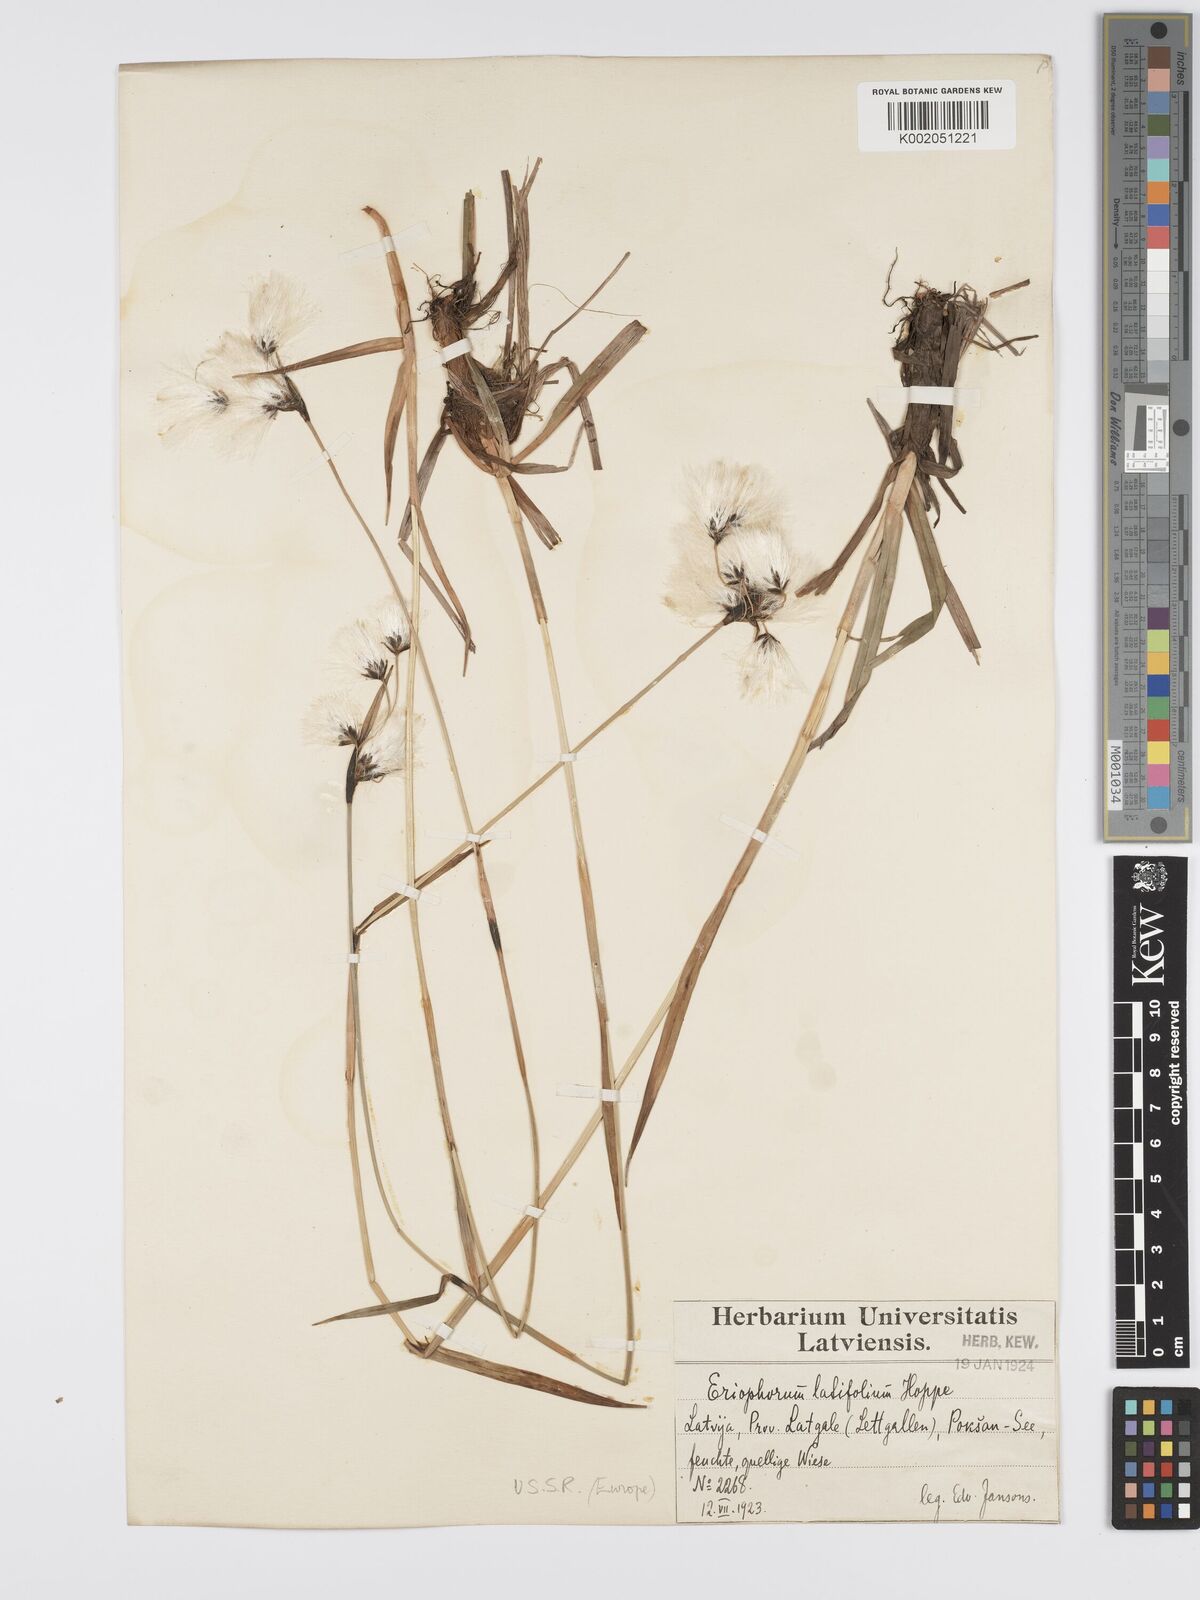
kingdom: Plantae
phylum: Tracheophyta
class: Liliopsida
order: Poales
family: Cyperaceae
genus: Eriophorum
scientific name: Eriophorum latifolium
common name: Broad-leaved cottongrass
